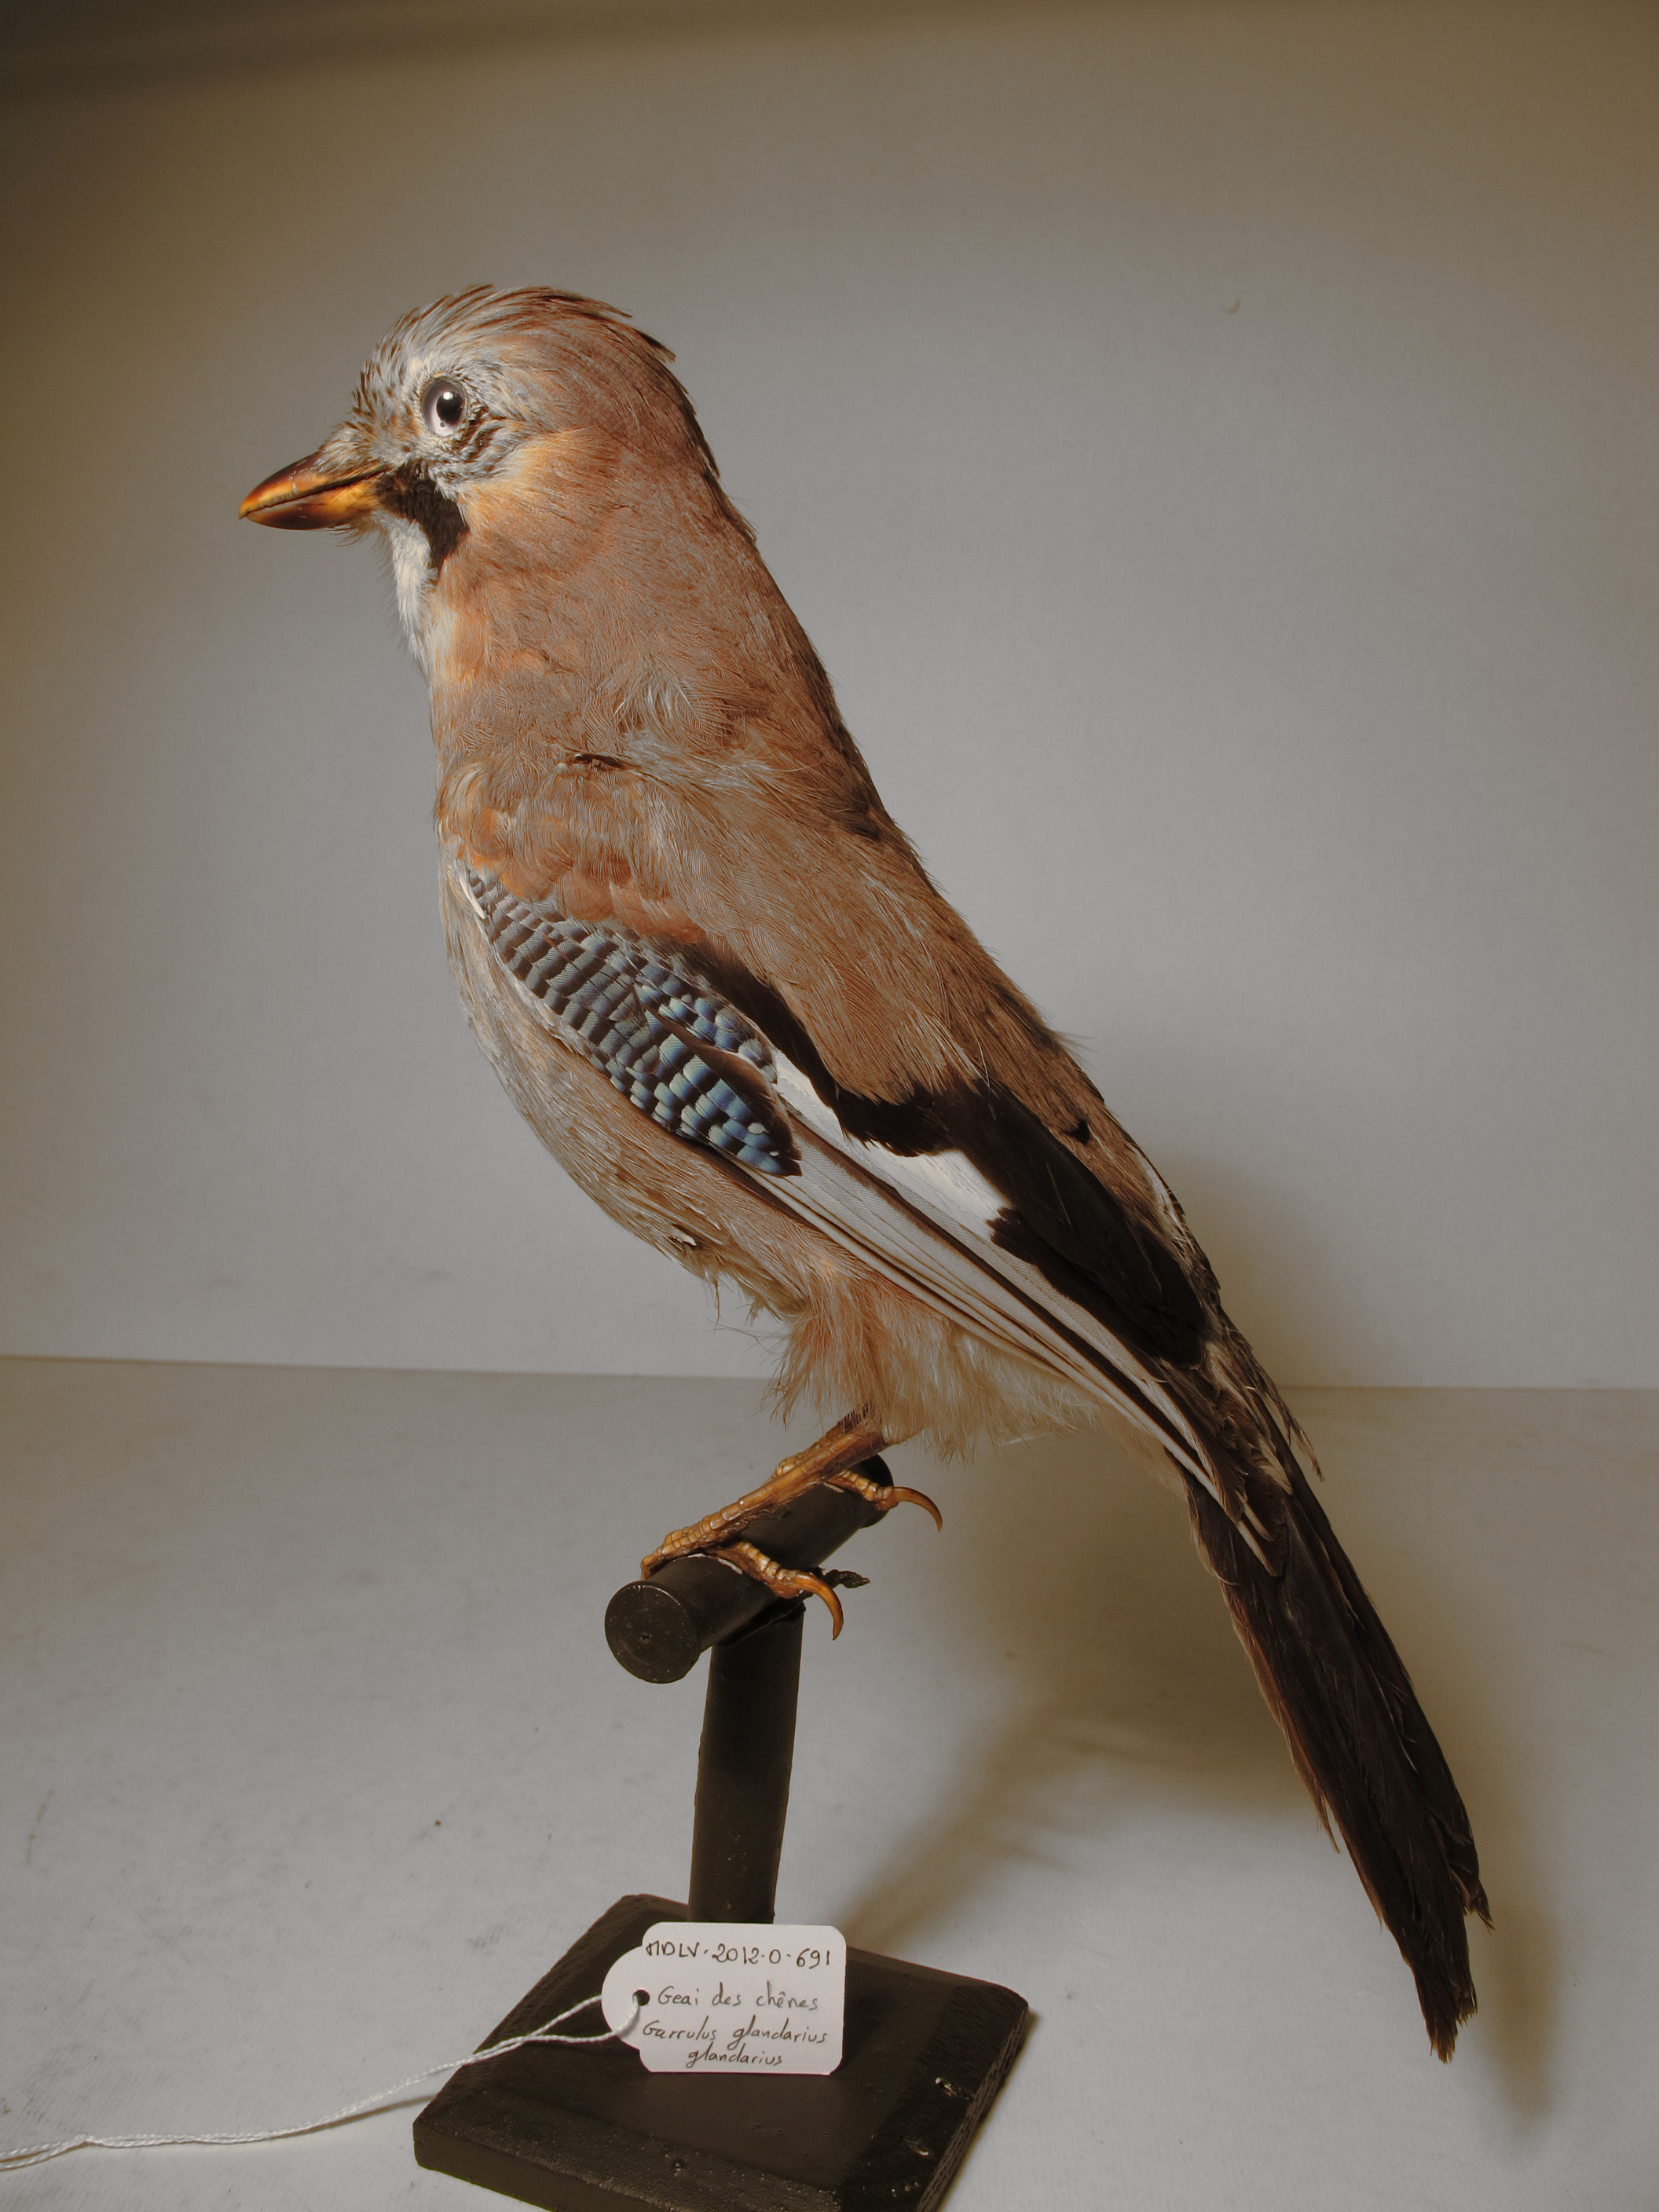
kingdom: Animalia
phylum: Chordata
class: Aves
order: Passeriformes
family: Corvidae
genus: Garrulus
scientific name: Garrulus glandarius
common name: Eurasian Jay
